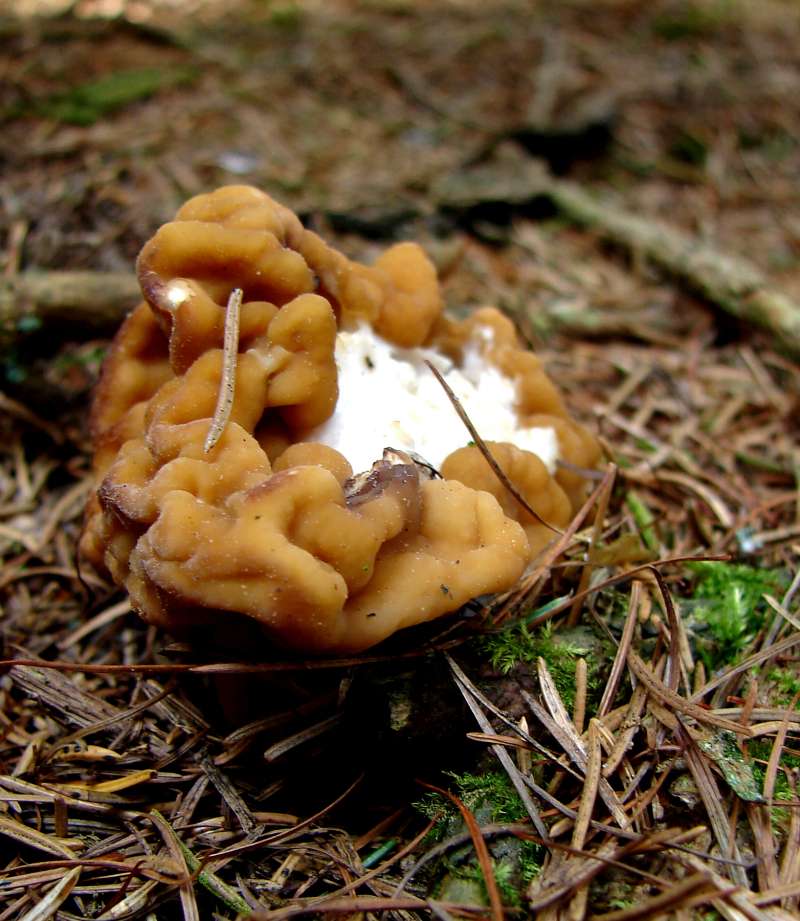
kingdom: Fungi
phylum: Ascomycota
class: Pezizomycetes
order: Pezizales
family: Discinaceae
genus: Gyromitra
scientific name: Gyromitra esculenta
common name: ægte stenmorkel
